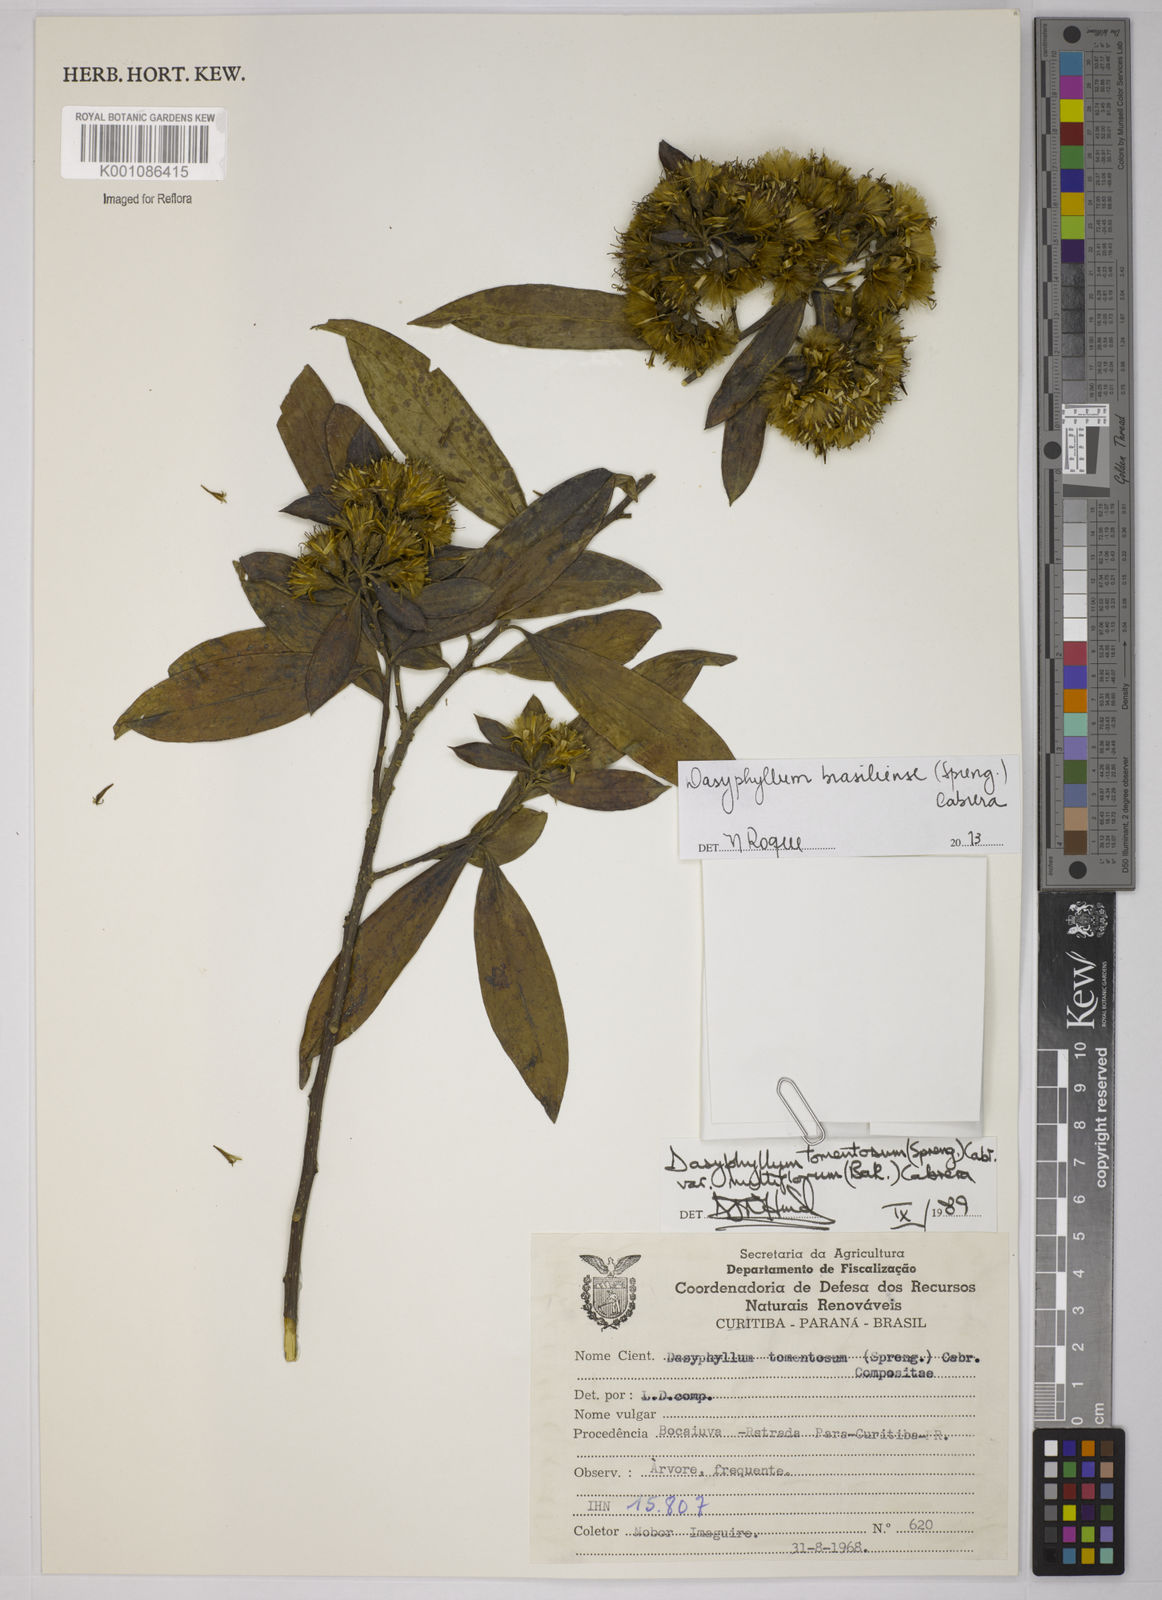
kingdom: Plantae
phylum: Tracheophyta
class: Magnoliopsida
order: Asterales
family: Asteraceae
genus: Dasyphyllum
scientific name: Dasyphyllum brasiliense
